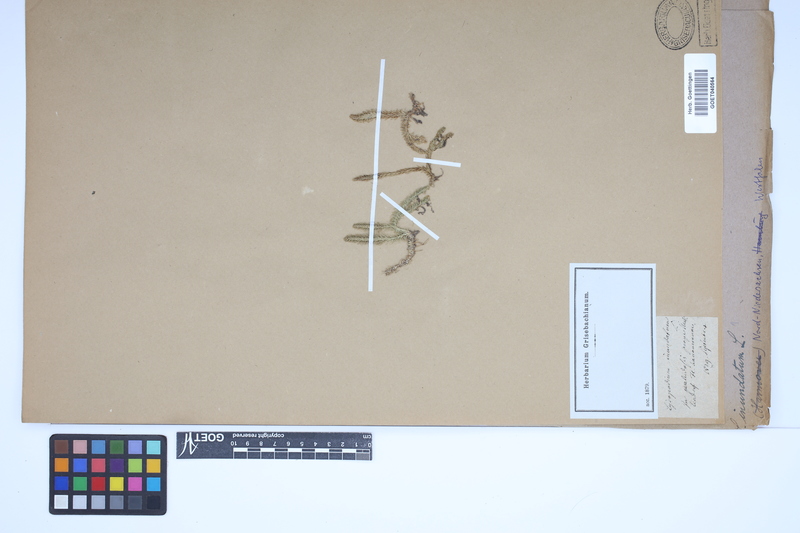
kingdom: Plantae
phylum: Tracheophyta
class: Lycopodiopsida
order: Lycopodiales
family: Lycopodiaceae
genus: Lycopodiella
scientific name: Lycopodiella inundata
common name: Marsh clubmoss
